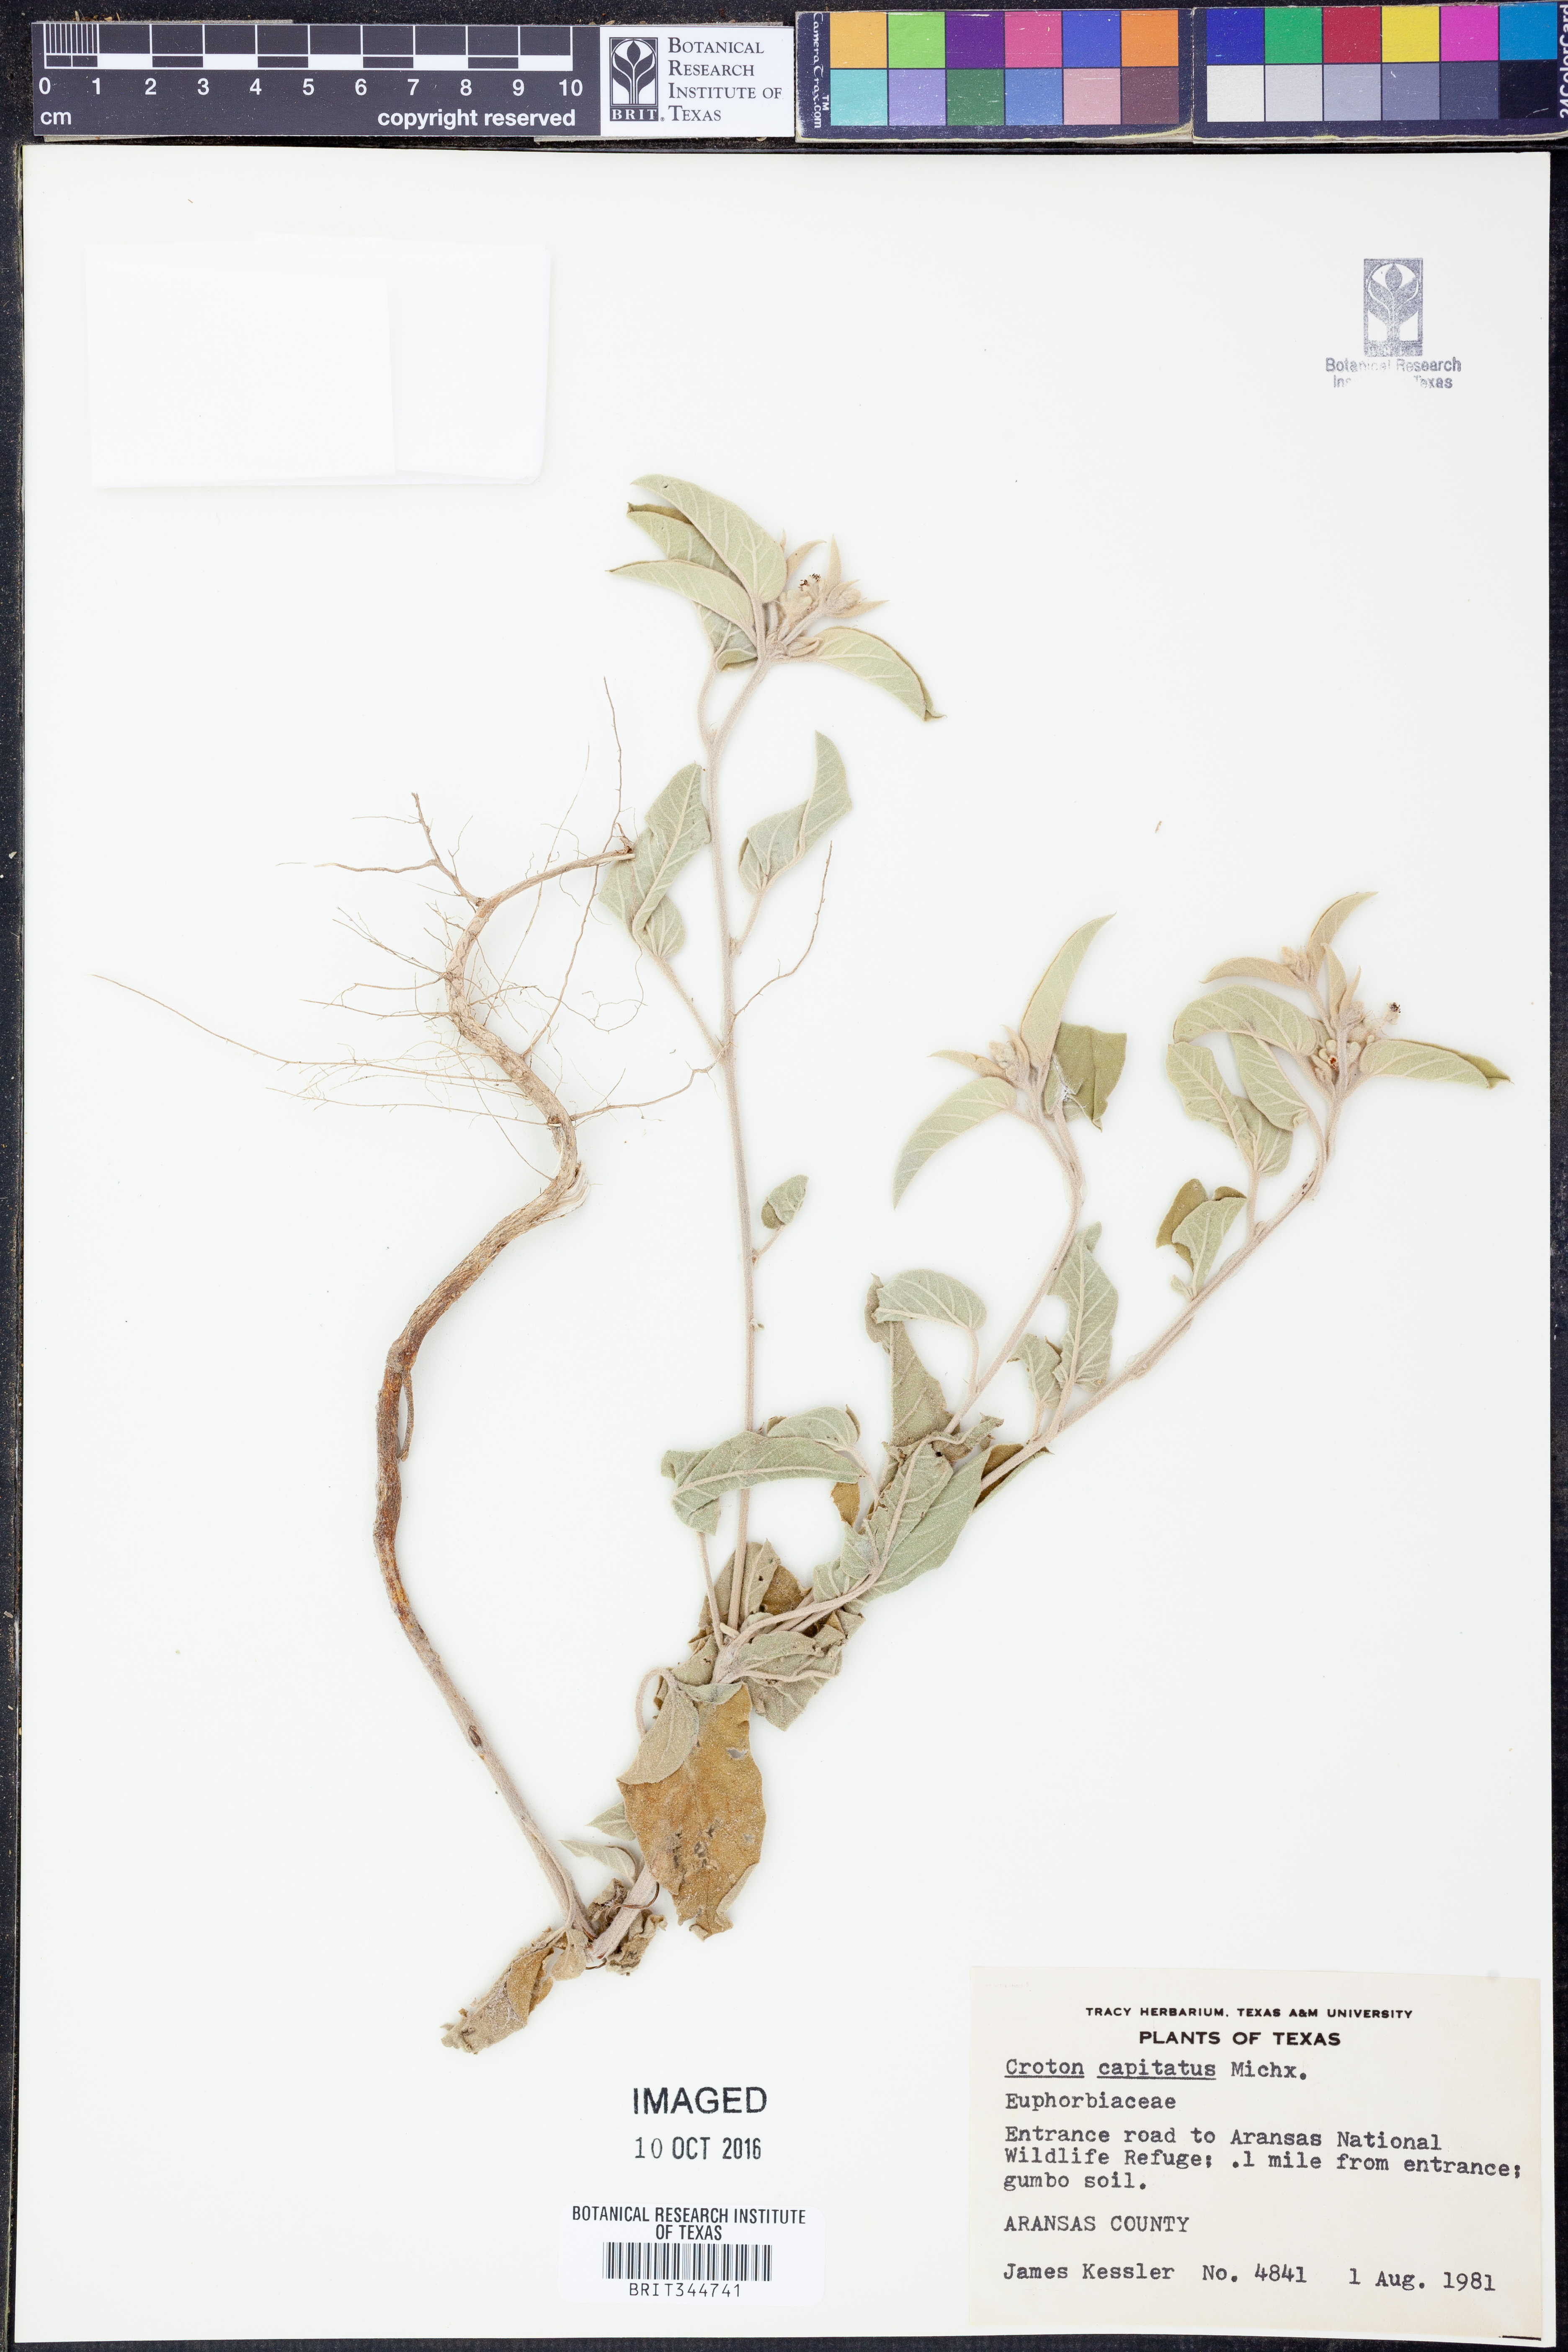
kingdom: Plantae
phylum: Tracheophyta
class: Magnoliopsida
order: Malpighiales
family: Euphorbiaceae
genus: Croton
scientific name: Croton capitatus
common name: Woolly croton
